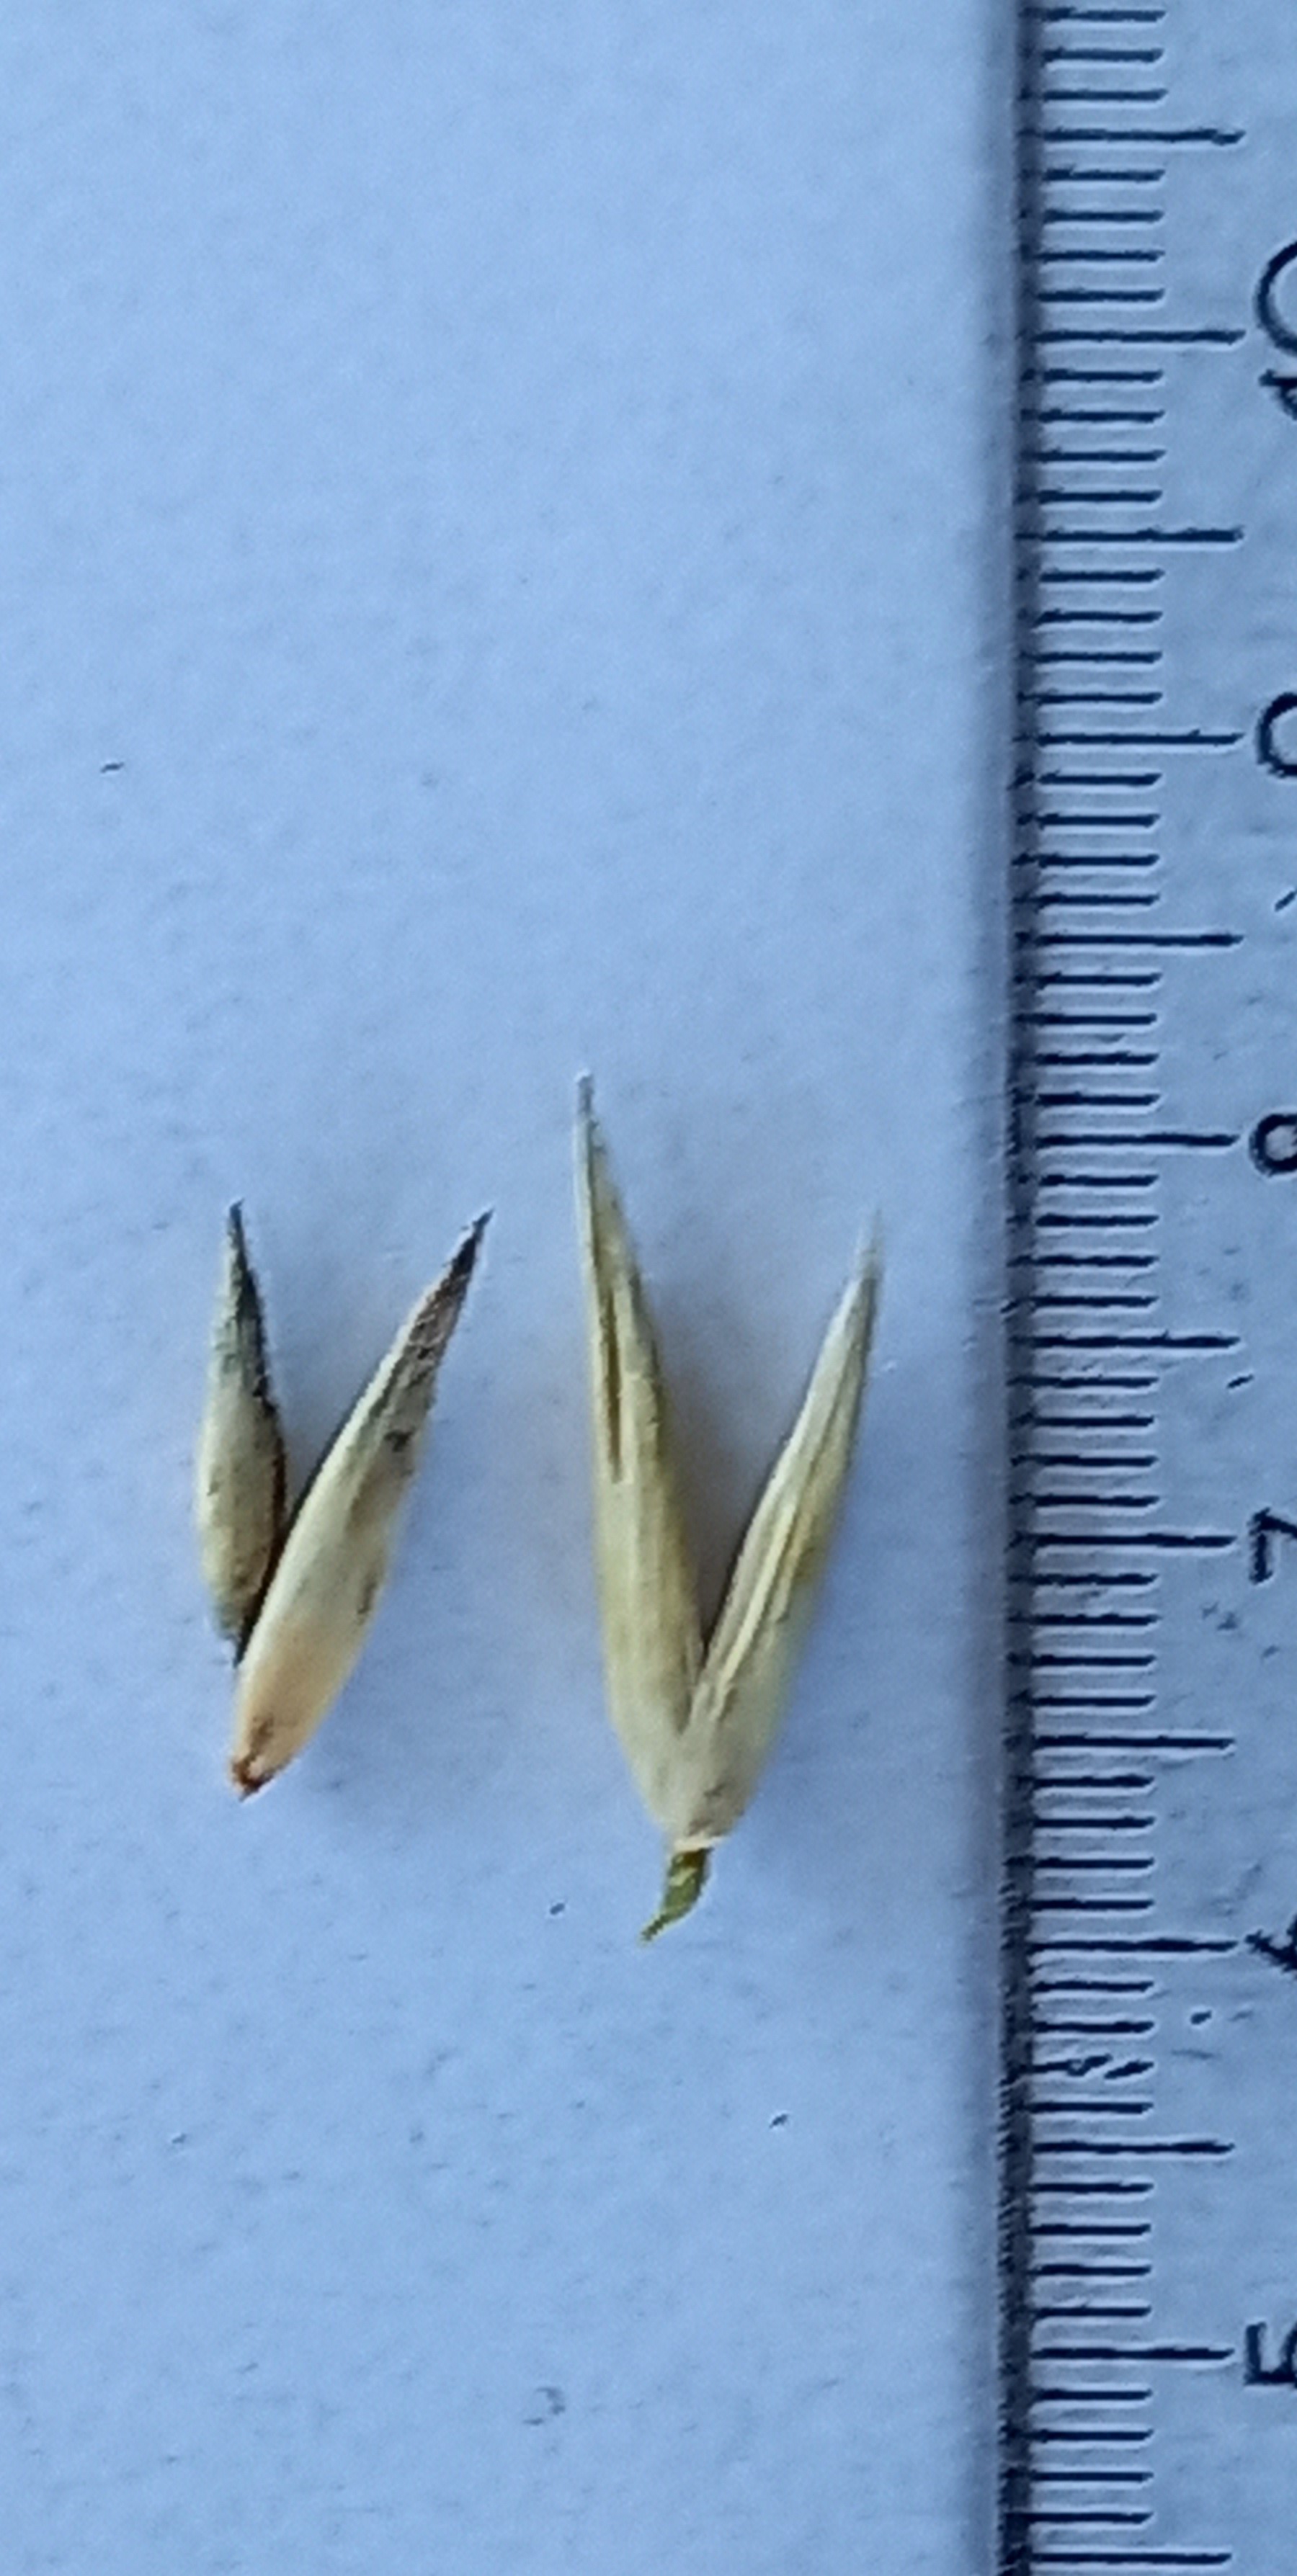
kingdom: Plantae
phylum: Tracheophyta
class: Liliopsida
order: Poales
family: Poaceae
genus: Avena
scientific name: Avena sativa
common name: Oat
